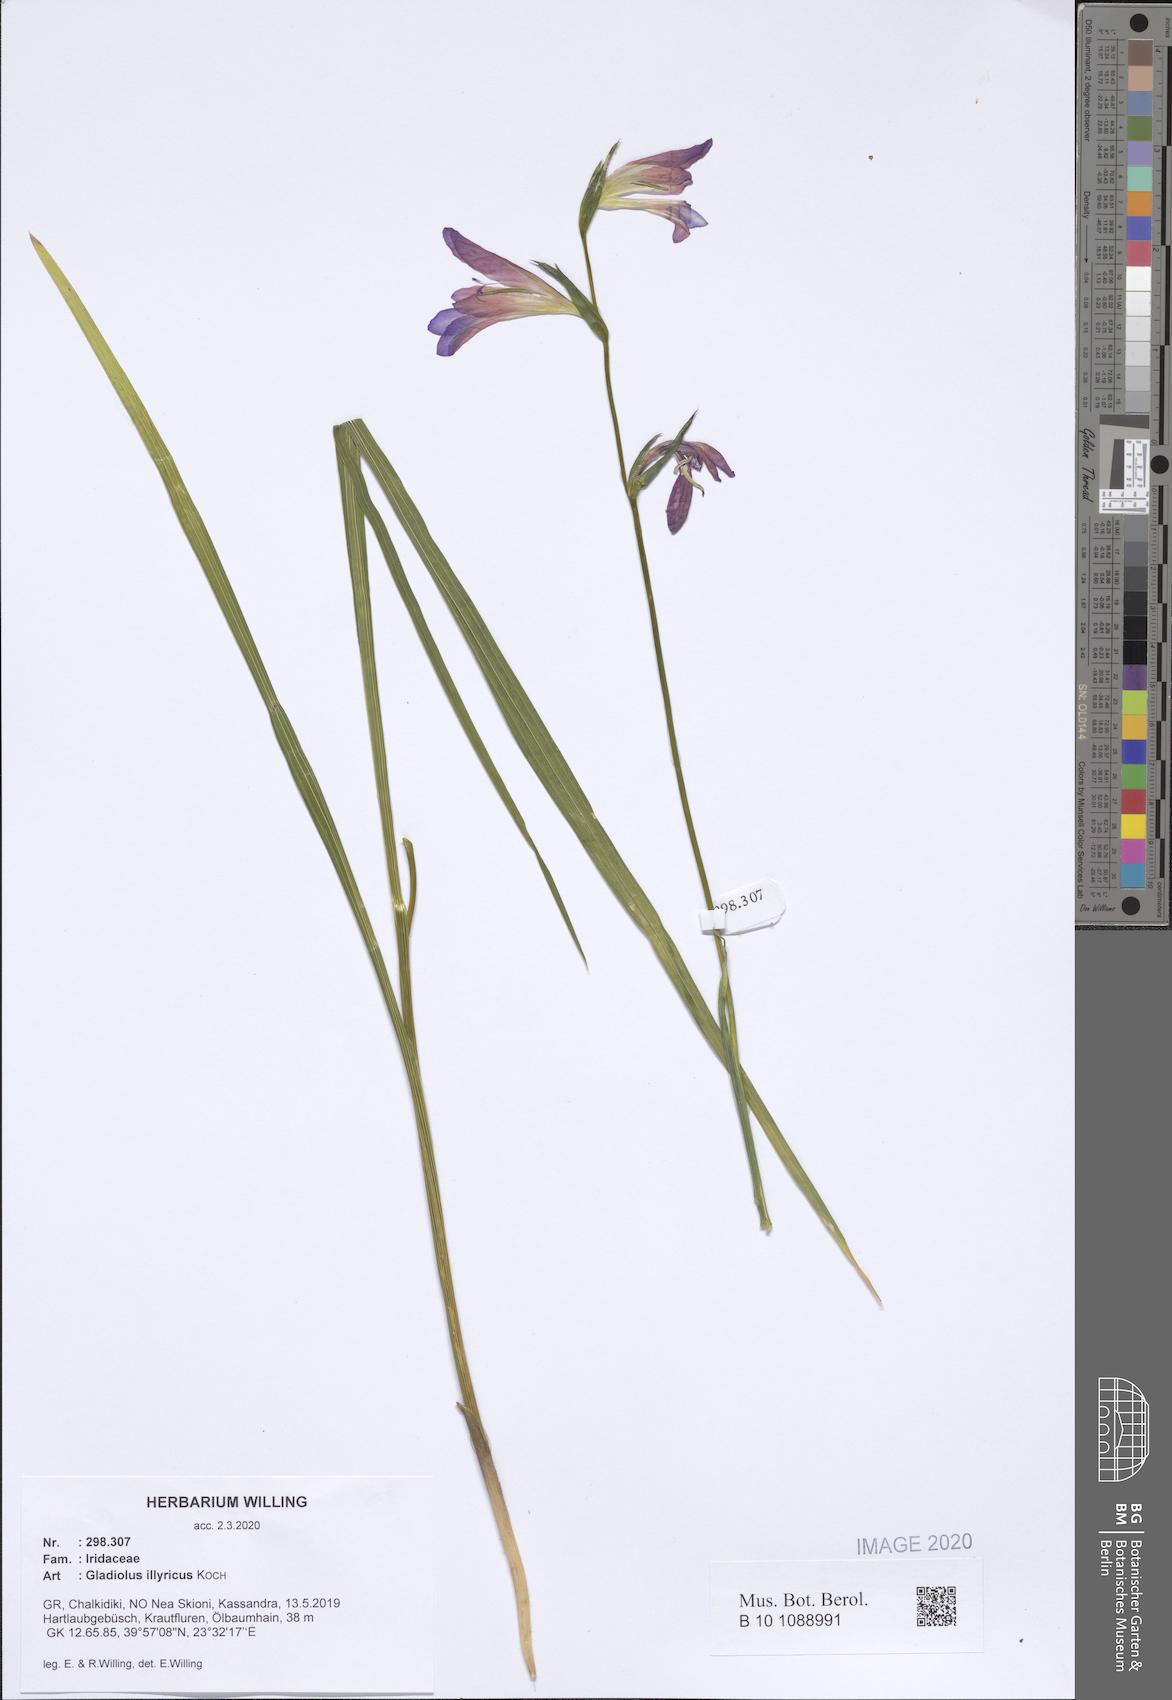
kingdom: Plantae
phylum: Tracheophyta
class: Liliopsida
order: Asparagales
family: Iridaceae
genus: Gladiolus
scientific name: Gladiolus illyricus
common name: Wild gladiolus
